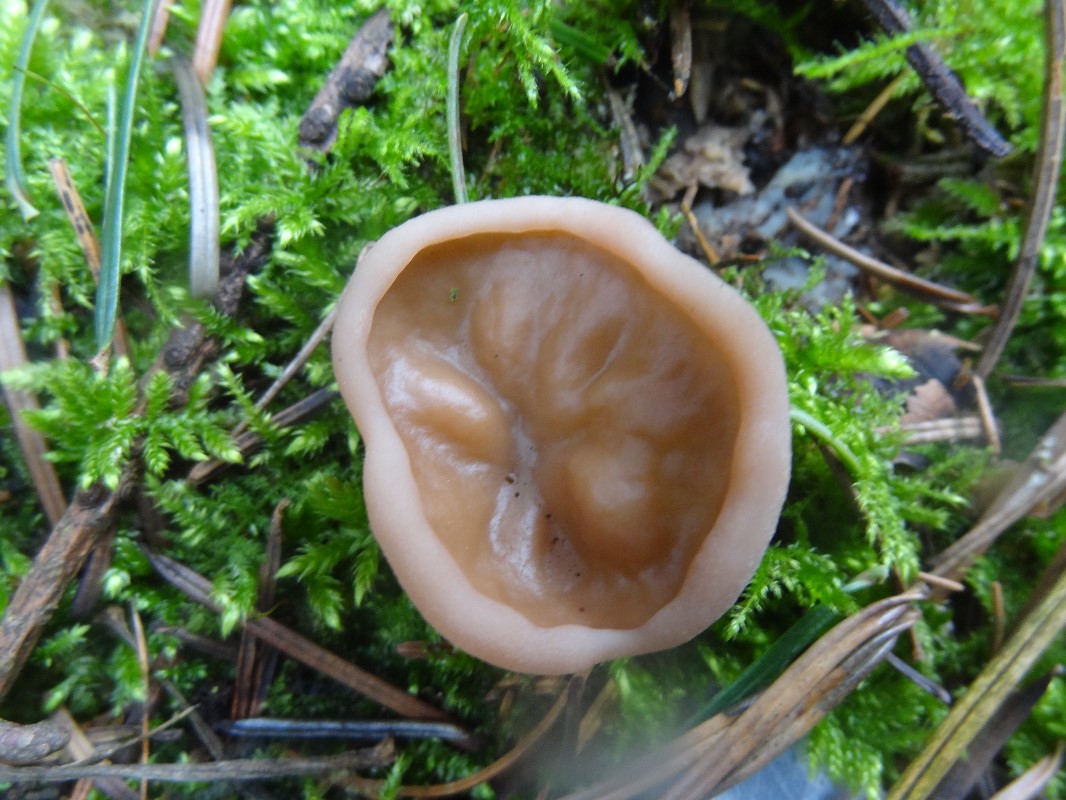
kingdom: Fungi
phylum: Ascomycota
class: Pezizomycetes
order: Pezizales
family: Discinaceae
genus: Discina
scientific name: Discina ancilis
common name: udbredt stenmorkel
